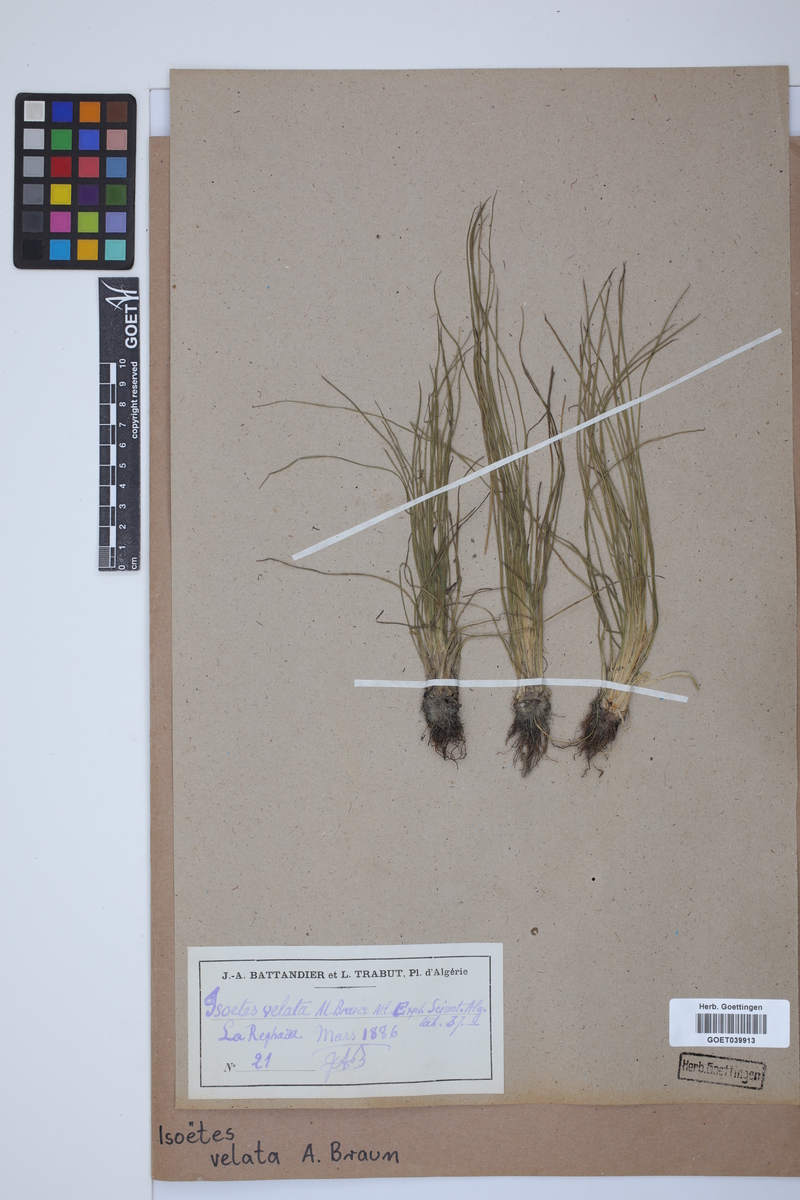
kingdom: Plantae
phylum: Tracheophyta
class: Lycopodiopsida
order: Isoetales
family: Isoetaceae
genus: Isoetes
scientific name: Isoetes longissima
